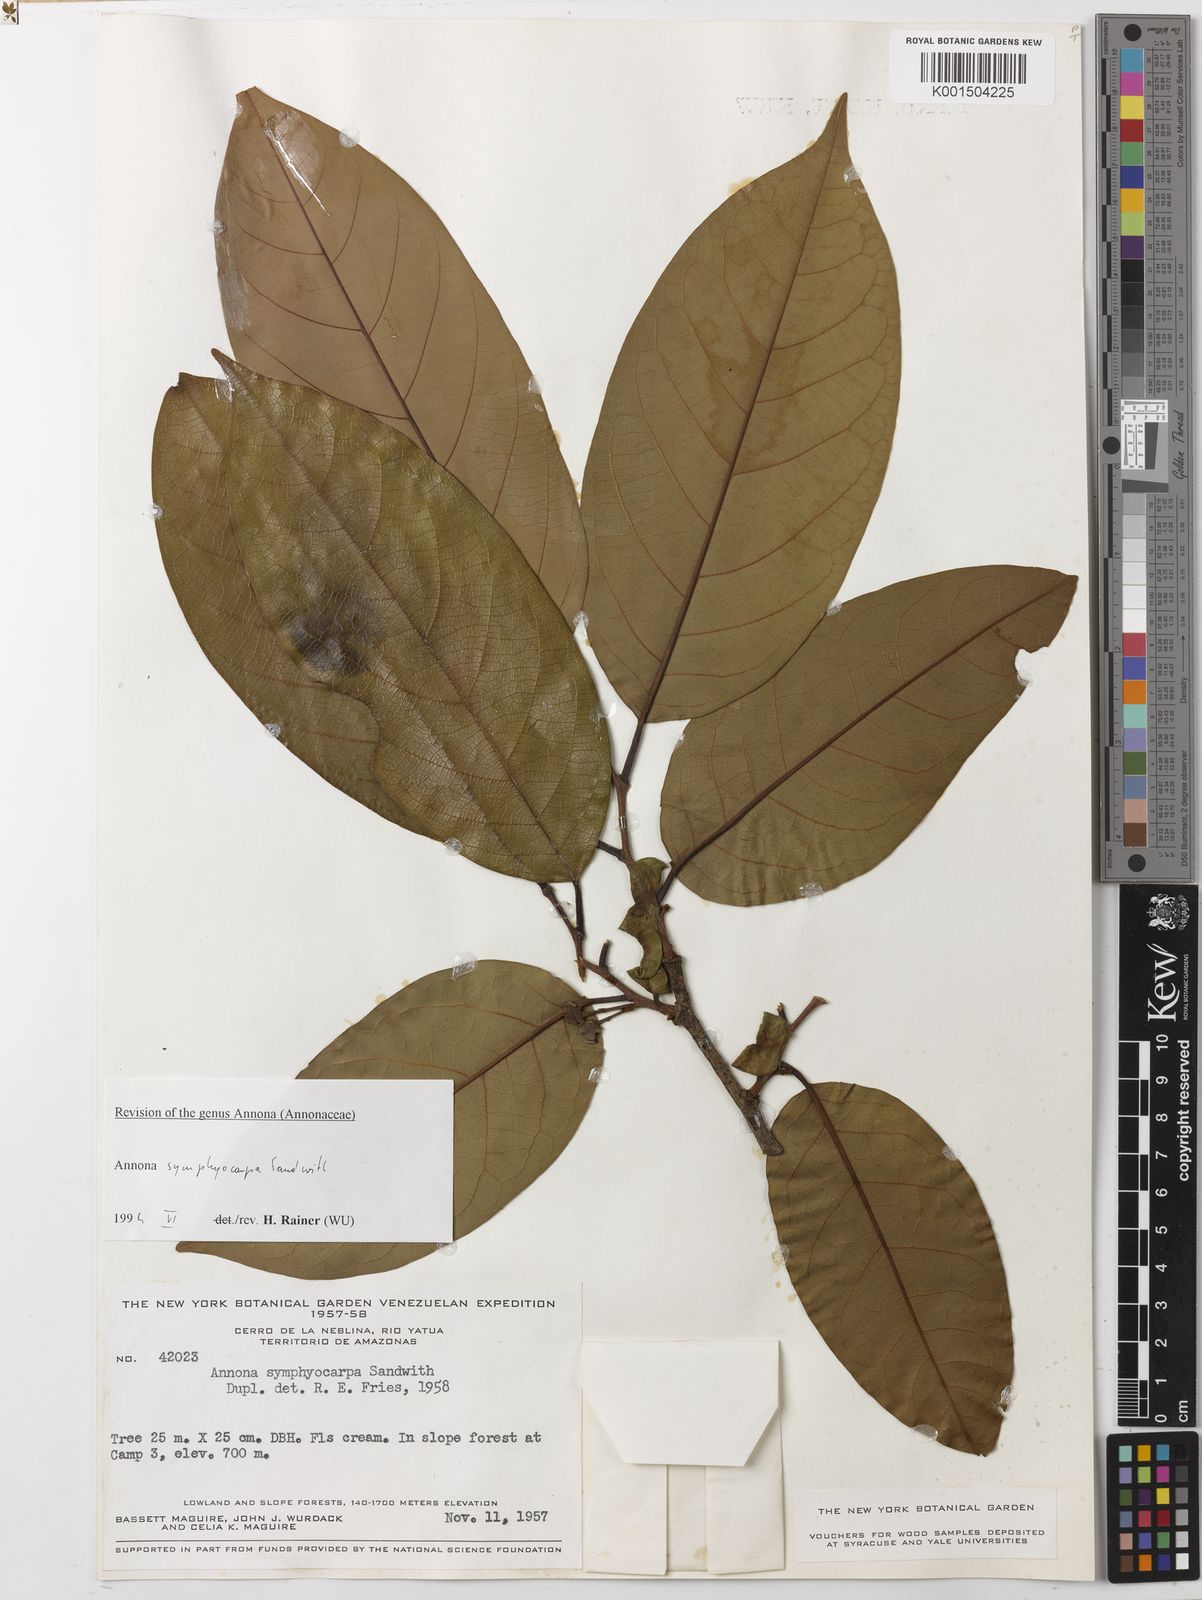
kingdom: Plantae
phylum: Tracheophyta
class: Magnoliopsida
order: Magnoliales
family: Annonaceae
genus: Annona
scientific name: Annona symphyocarpa
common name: Custard apple
